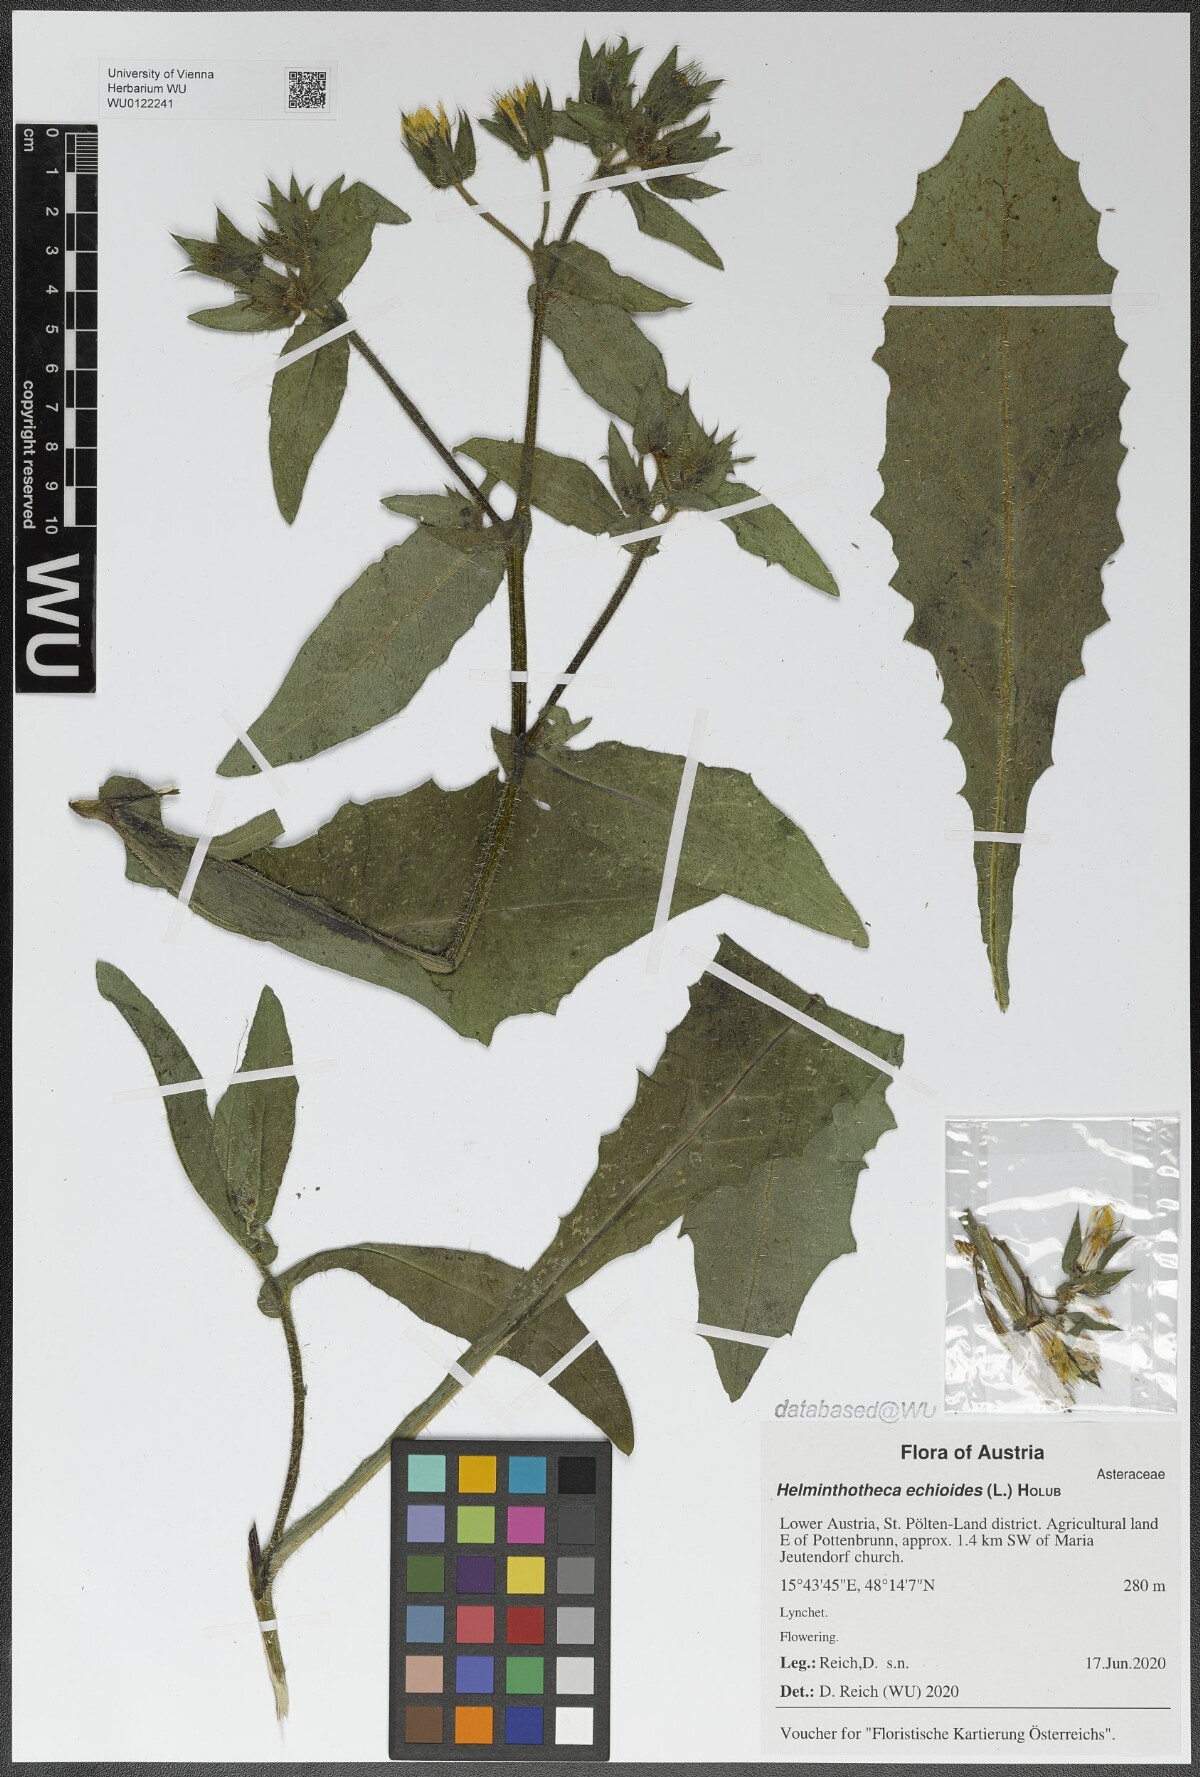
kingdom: Plantae
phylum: Tracheophyta
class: Magnoliopsida
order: Asterales
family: Asteraceae
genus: Helminthotheca
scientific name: Helminthotheca echioides
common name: Ox-tongue
